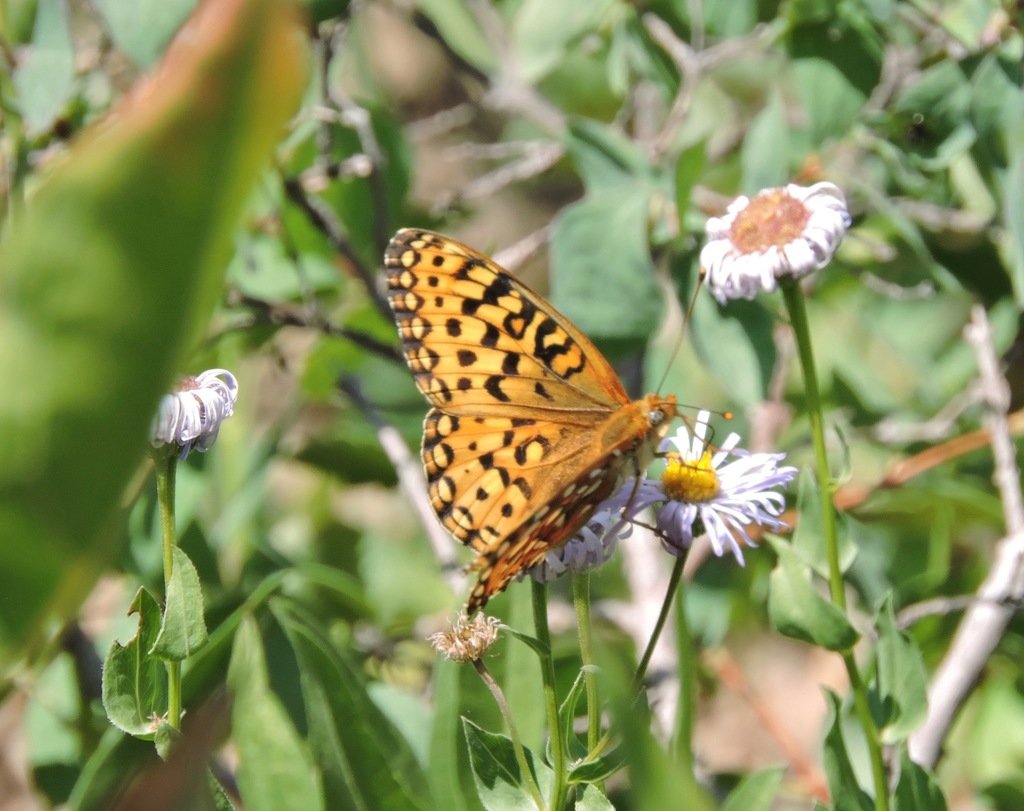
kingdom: Animalia
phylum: Arthropoda
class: Insecta
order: Lepidoptera
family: Nymphalidae
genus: Speyeria
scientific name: Speyeria egleis
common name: Great Basin Fritillary
